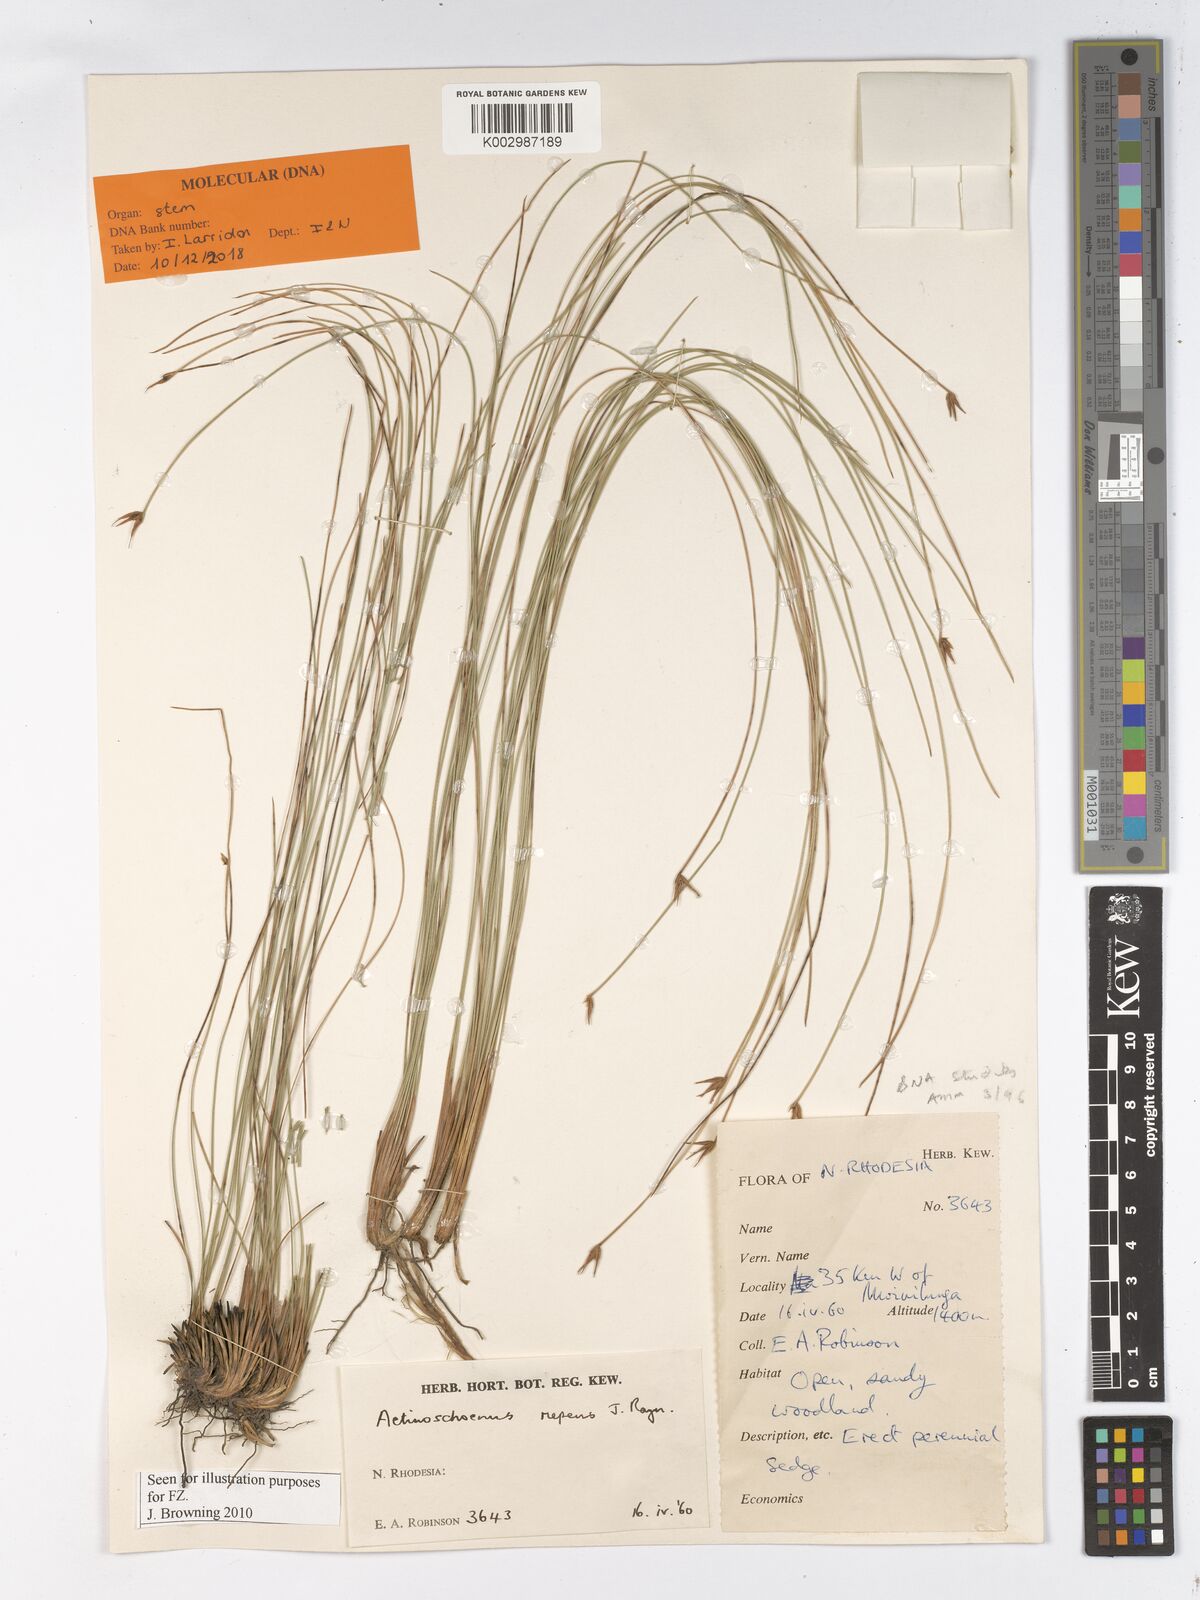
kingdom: Plantae
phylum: Tracheophyta
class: Liliopsida
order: Poales
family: Cyperaceae
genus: Actinoschoenus
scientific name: Actinoschoenus repens
